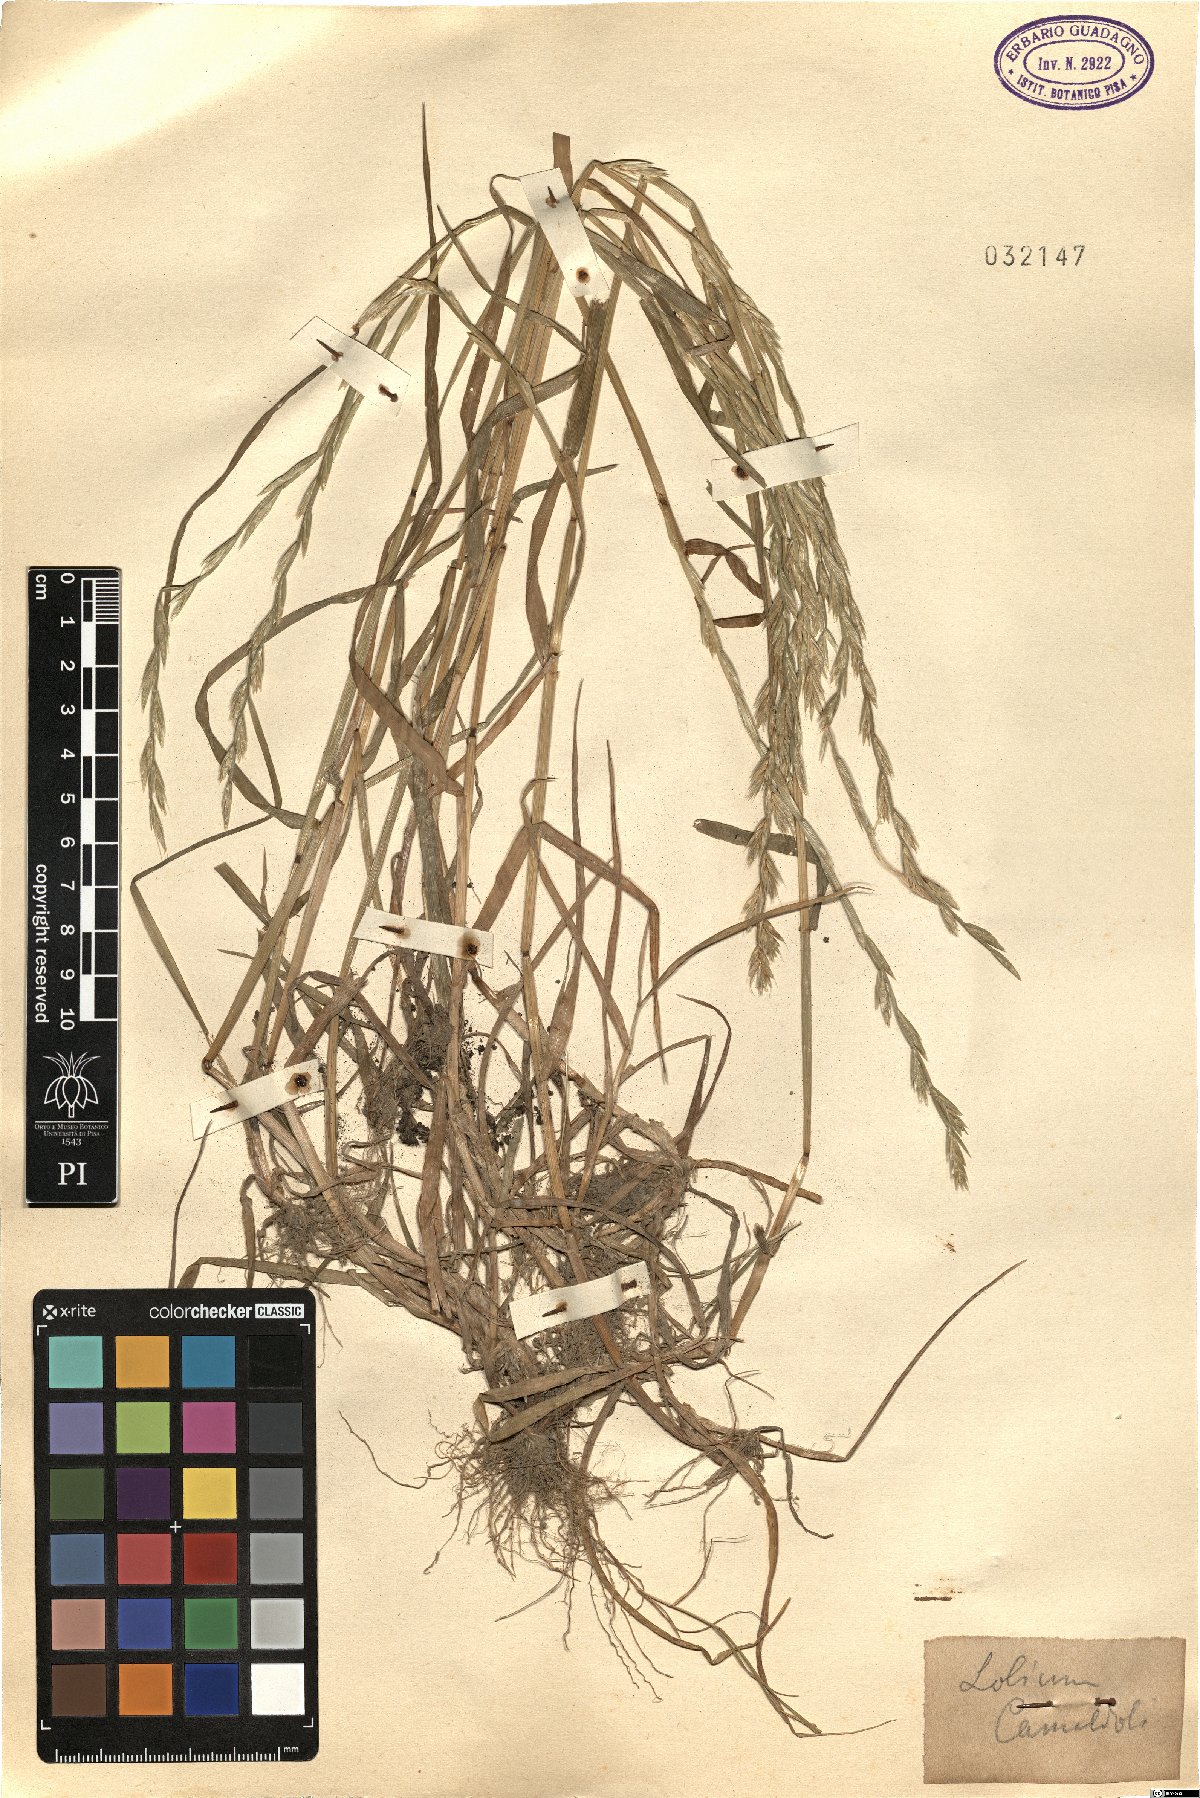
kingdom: Plantae
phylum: Tracheophyta
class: Liliopsida
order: Poales
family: Poaceae
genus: Lolium
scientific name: Lolium
